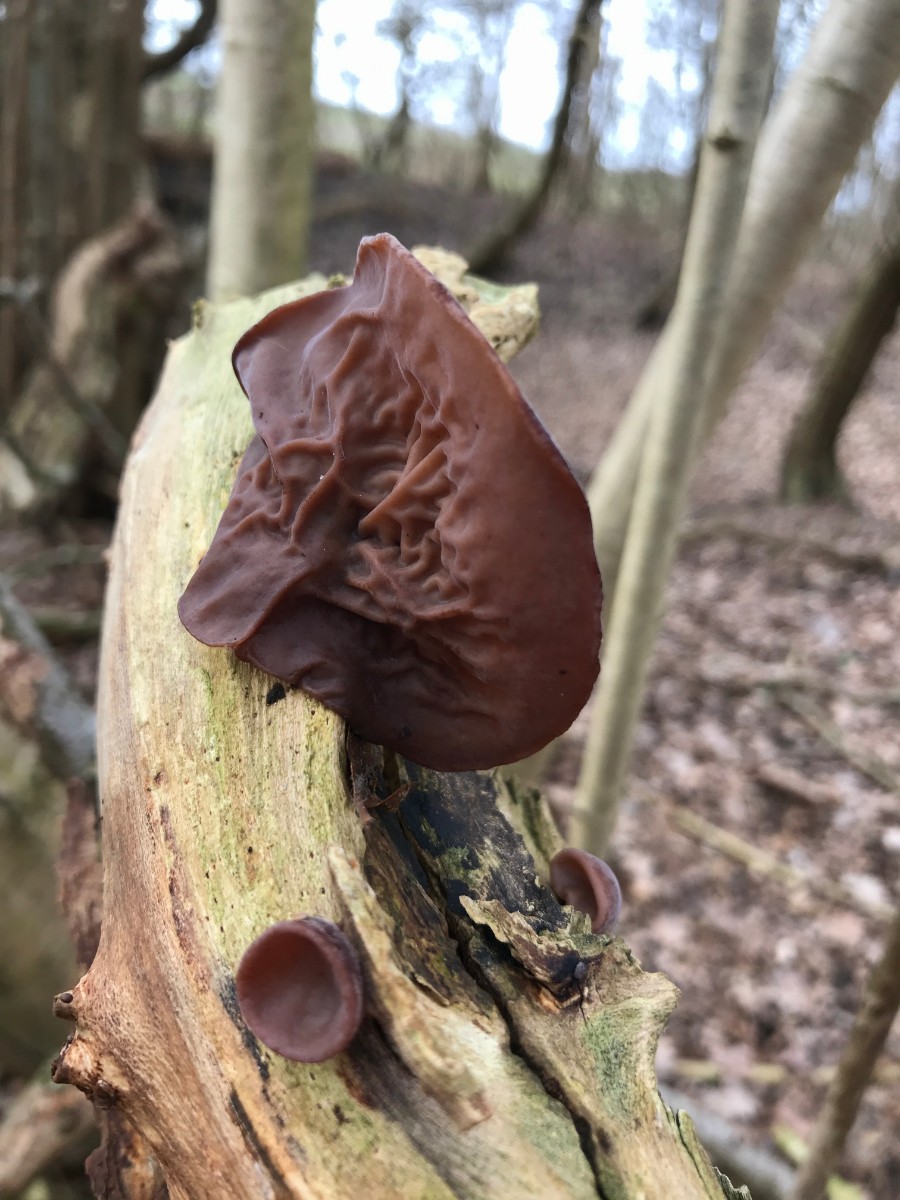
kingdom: Fungi
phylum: Basidiomycota
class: Agaricomycetes
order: Auriculariales
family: Auriculariaceae
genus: Auricularia
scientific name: Auricularia auricula-judae
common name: almindelig judasøre
